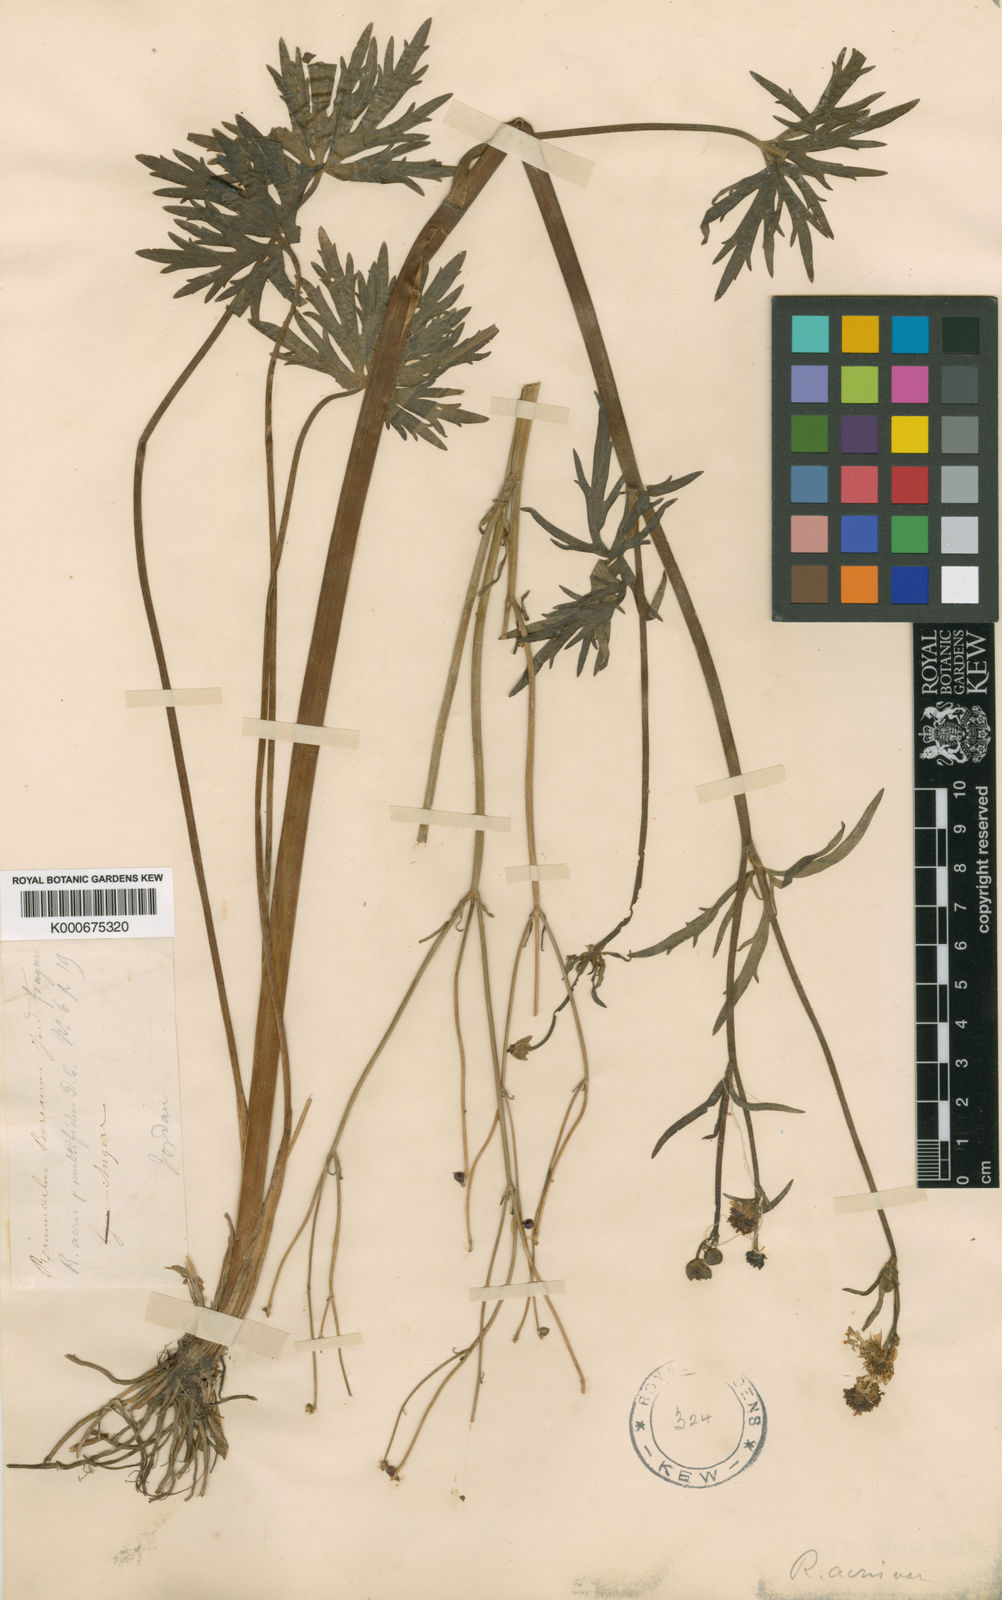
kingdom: Plantae
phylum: Tracheophyta
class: Magnoliopsida
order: Ranunculales
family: Ranunculaceae
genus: Ranunculus
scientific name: Ranunculus acris
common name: Meadow buttercup
